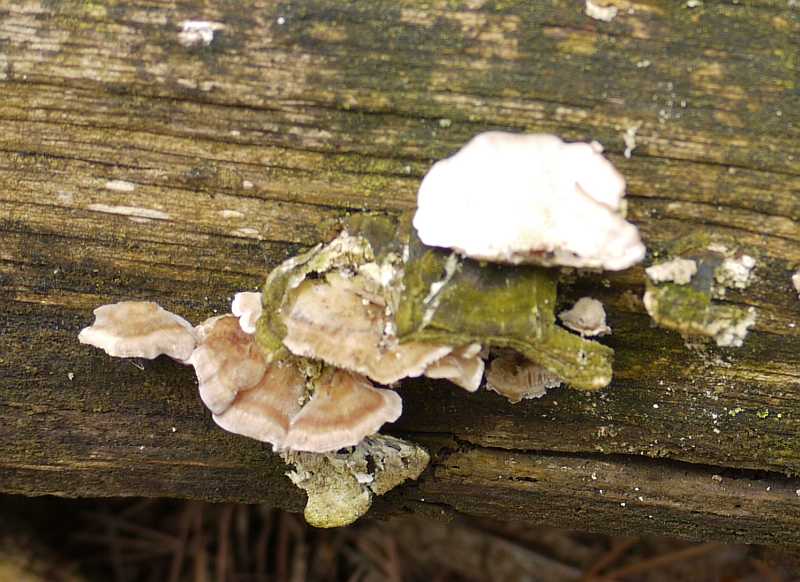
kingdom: Fungi
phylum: Basidiomycota
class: Agaricomycetes
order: Polyporales
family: Incrustoporiaceae
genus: Skeletocutis
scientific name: Skeletocutis carneogrisea
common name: rødgrå krystalporesvamp
